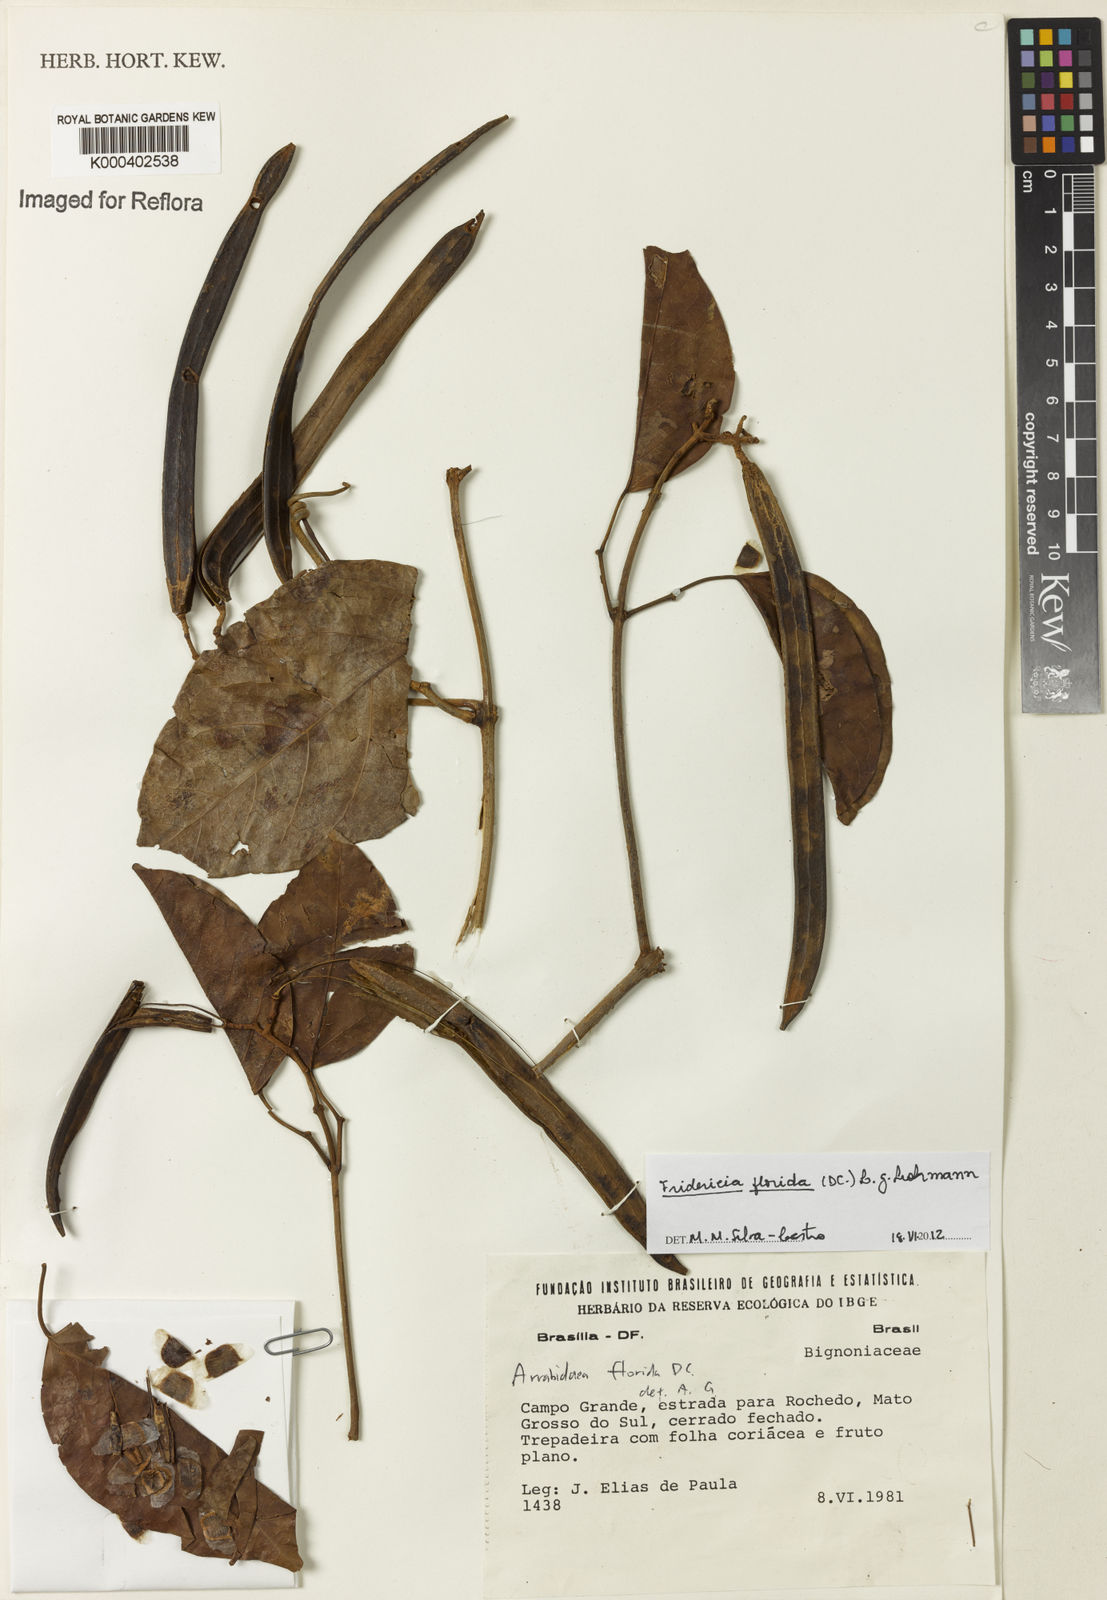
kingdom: Plantae
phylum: Tracheophyta
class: Magnoliopsida
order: Lamiales
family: Bignoniaceae
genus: Fridericia
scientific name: Fridericia florida
